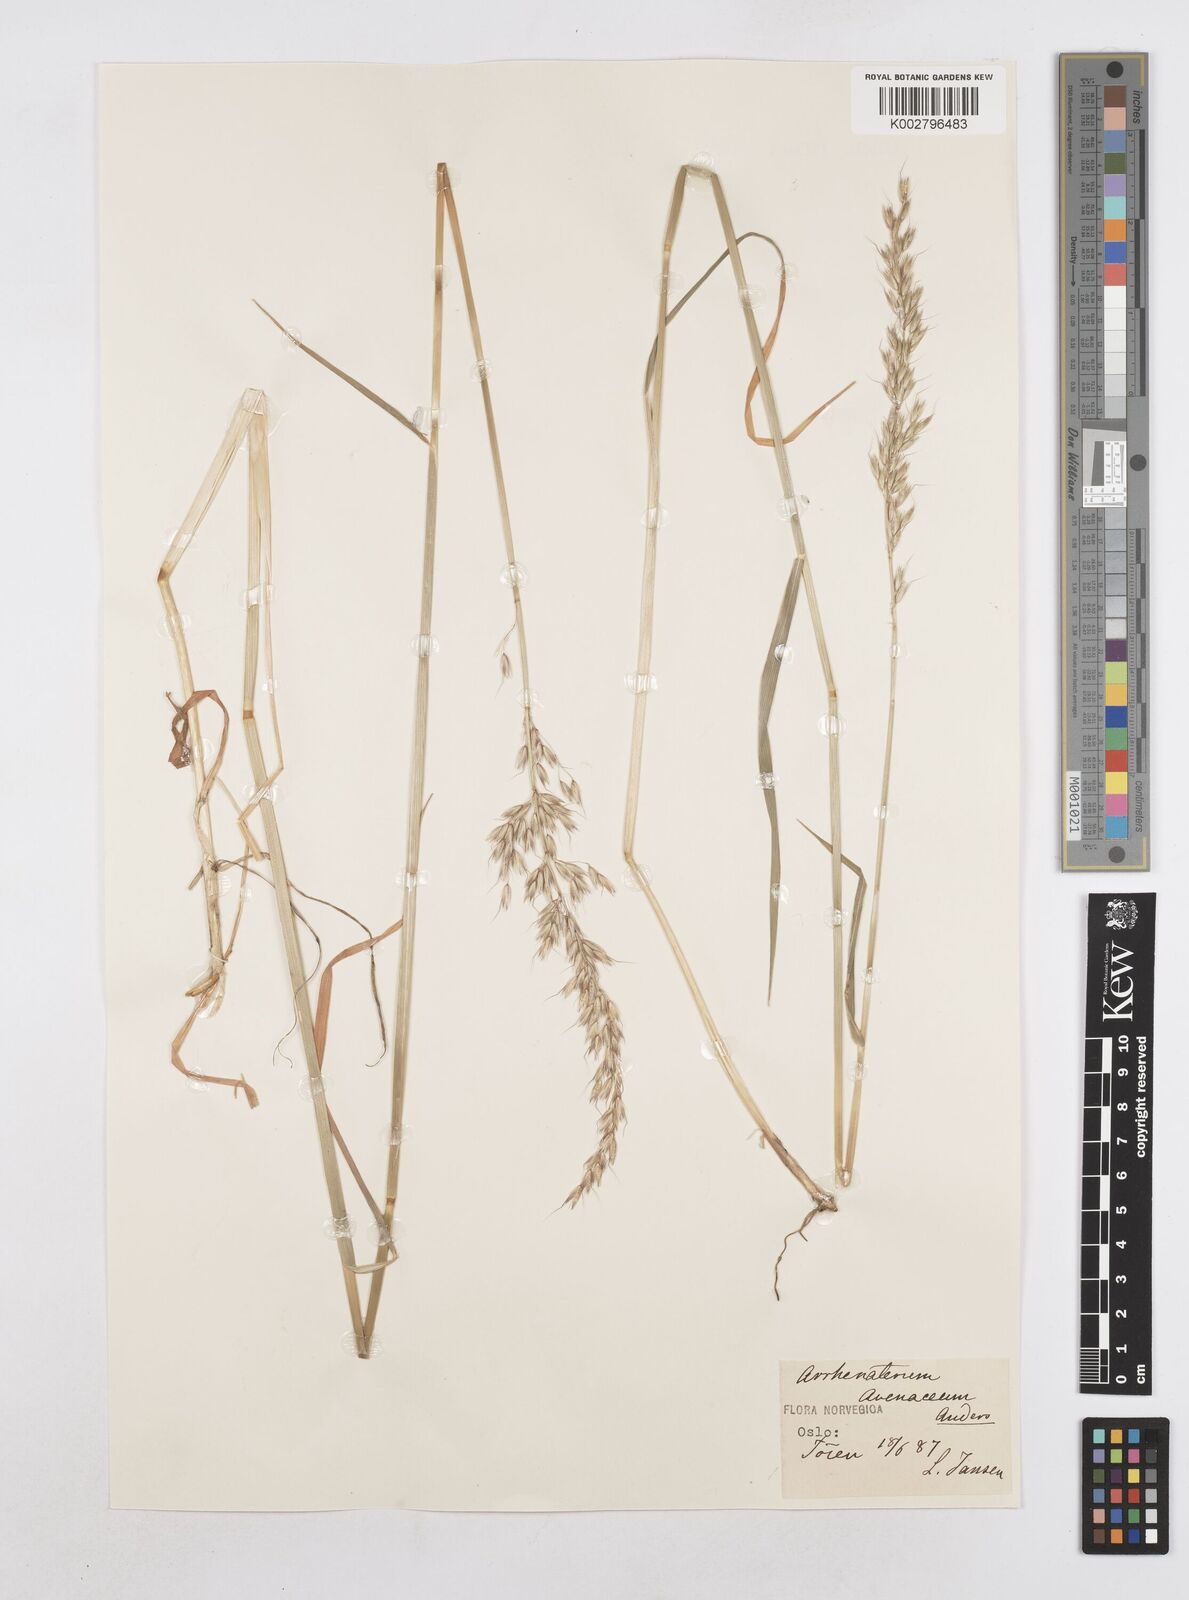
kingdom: Plantae
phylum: Tracheophyta
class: Liliopsida
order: Poales
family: Poaceae
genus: Arrhenatherum
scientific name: Arrhenatherum elatius
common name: Tall oatgrass
